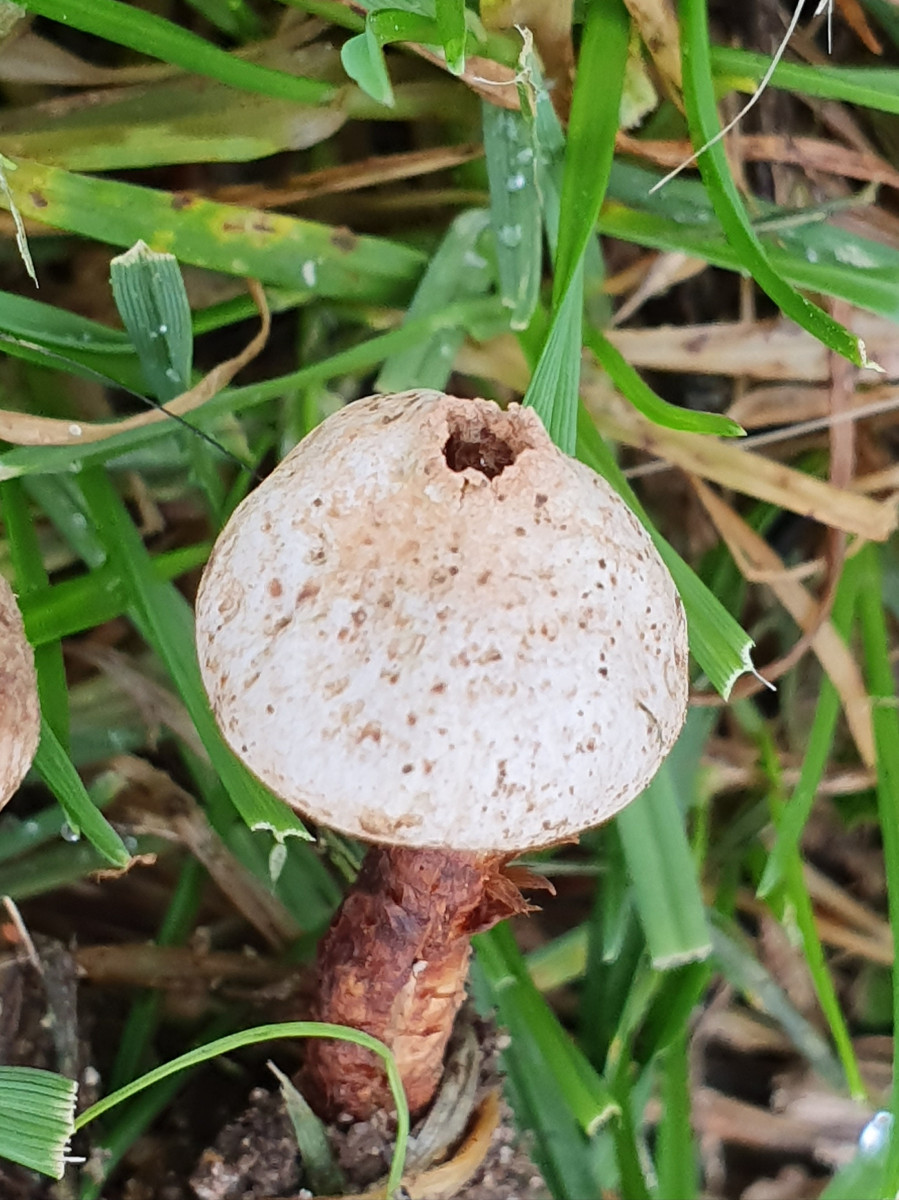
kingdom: Fungi
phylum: Basidiomycota
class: Agaricomycetes
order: Agaricales
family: Agaricaceae
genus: Tulostoma
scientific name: Tulostoma winterhoffii
